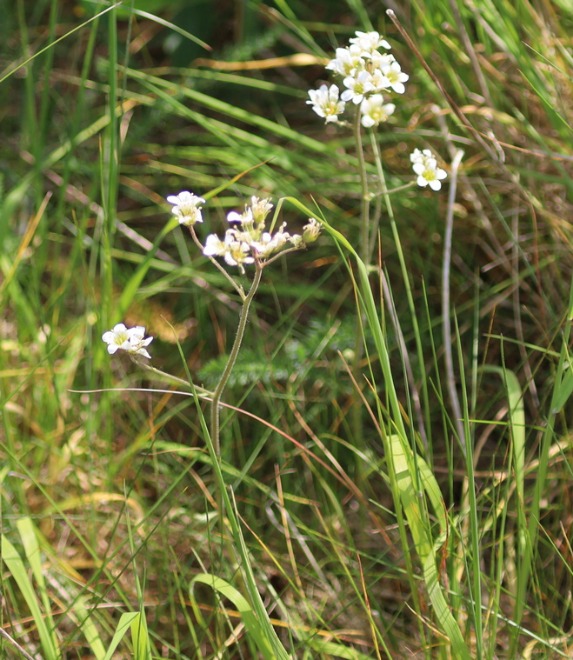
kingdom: Plantae
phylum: Tracheophyta
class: Magnoliopsida
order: Saxifragales
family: Saxifragaceae
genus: Saxifraga
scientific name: Saxifraga granulata
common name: Kornet stenbræk
